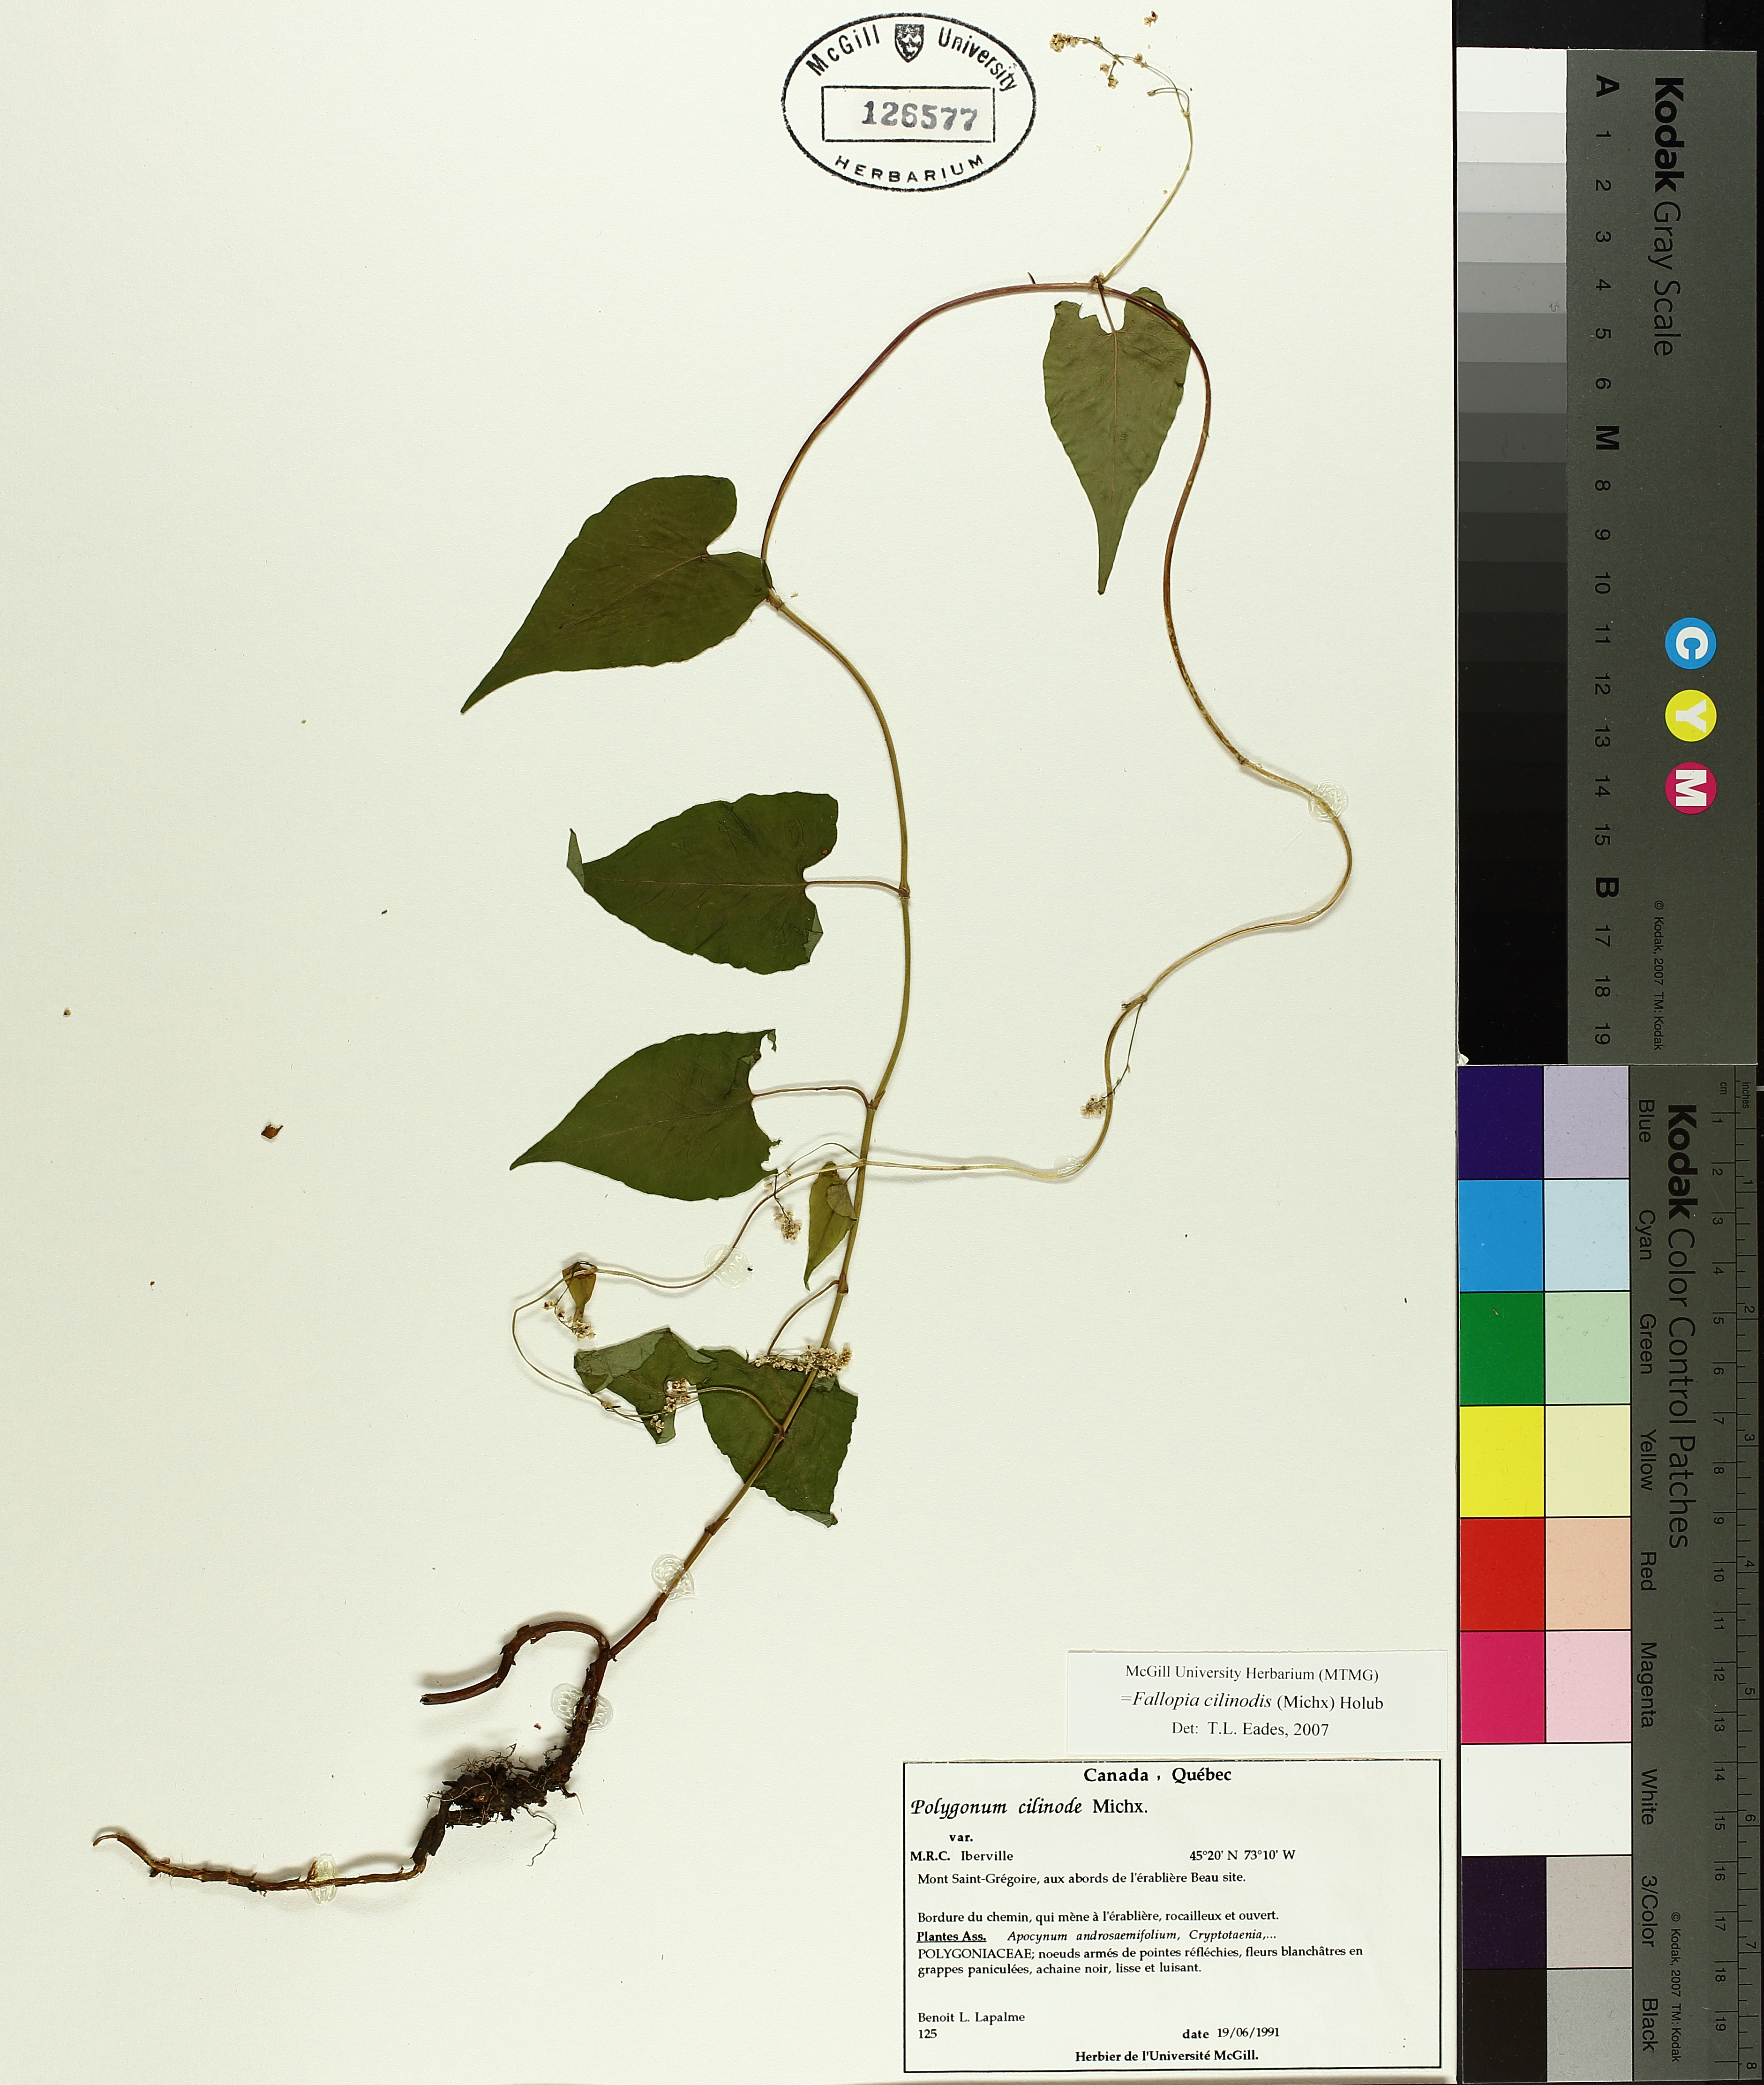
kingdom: Plantae
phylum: Tracheophyta
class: Magnoliopsida
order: Caryophyllales
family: Polygonaceae
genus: Parogonum
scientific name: Parogonum ciliinode
